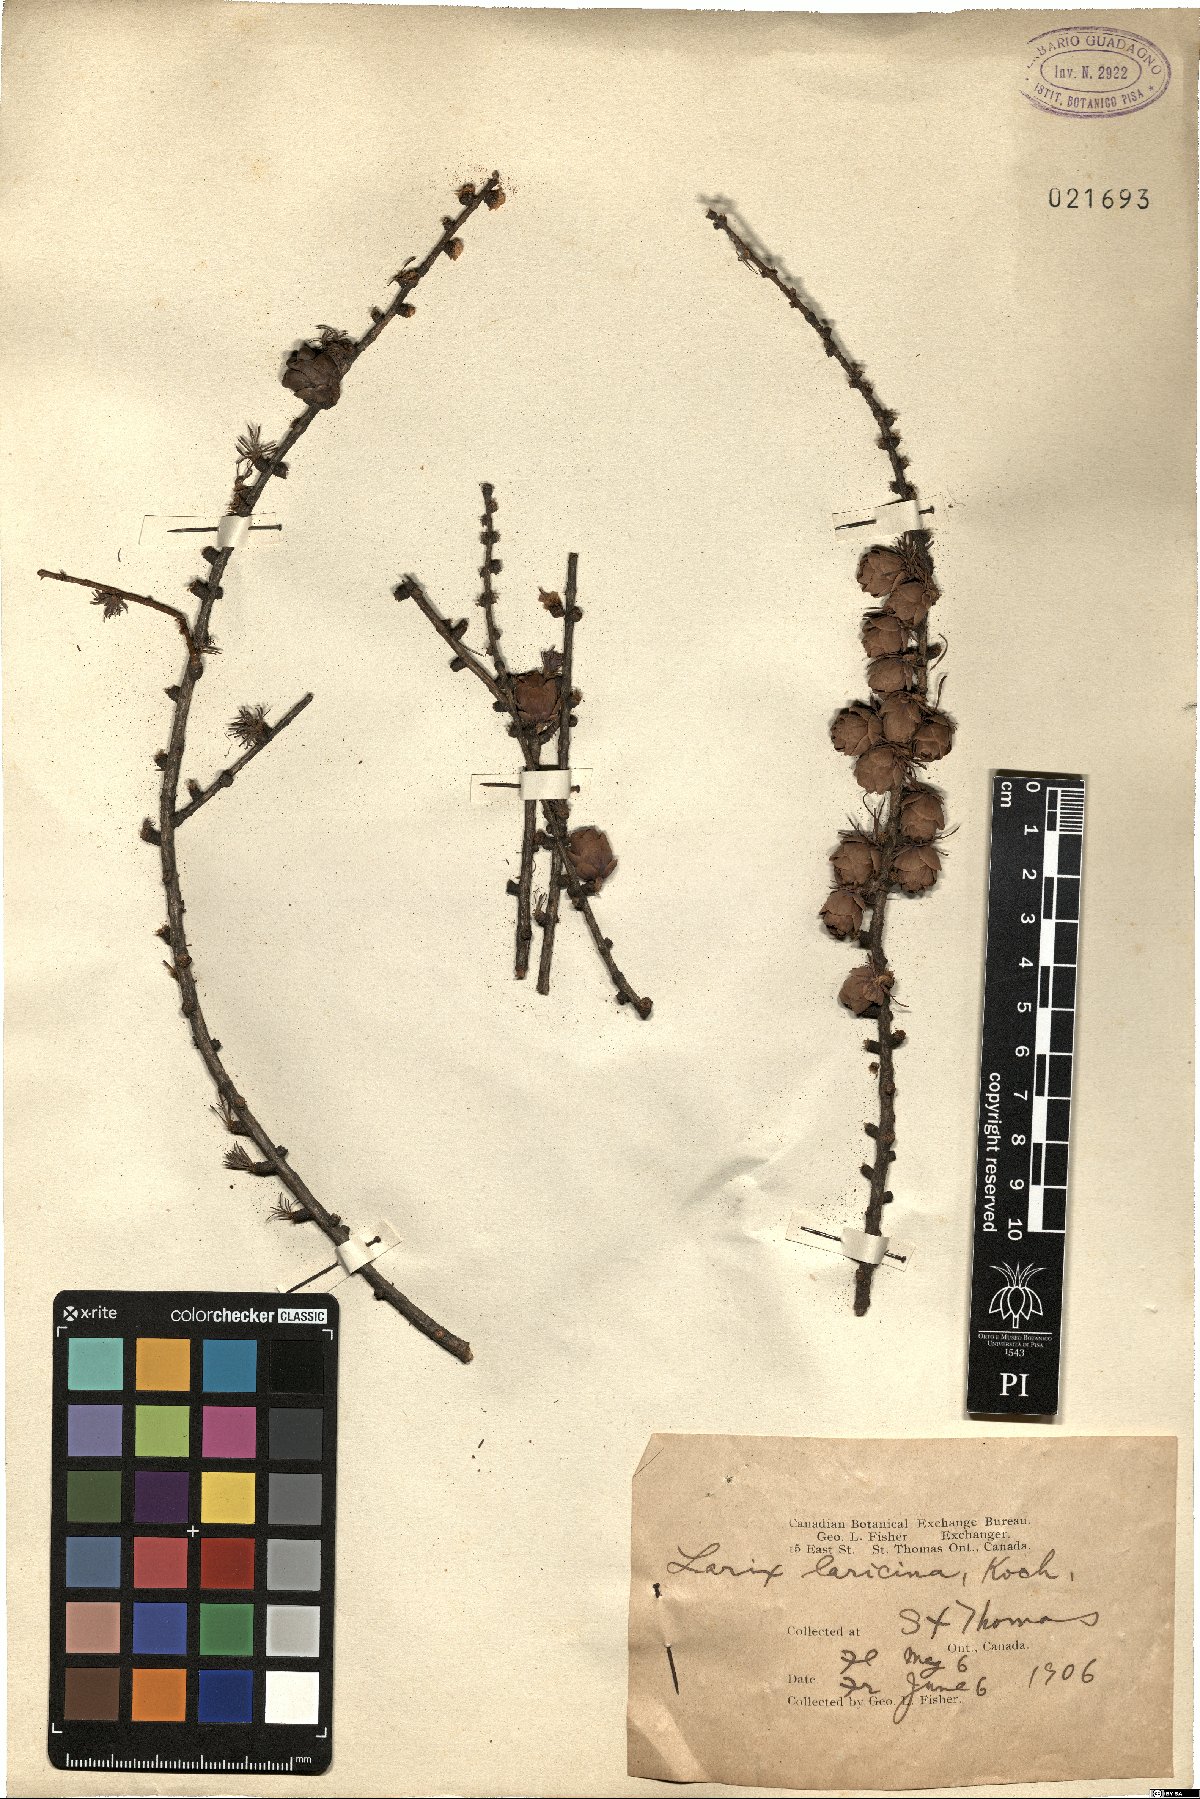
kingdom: Plantae
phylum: Tracheophyta
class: Pinopsida
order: Pinales
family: Pinaceae
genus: Larix
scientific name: Larix laricina
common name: American larch
